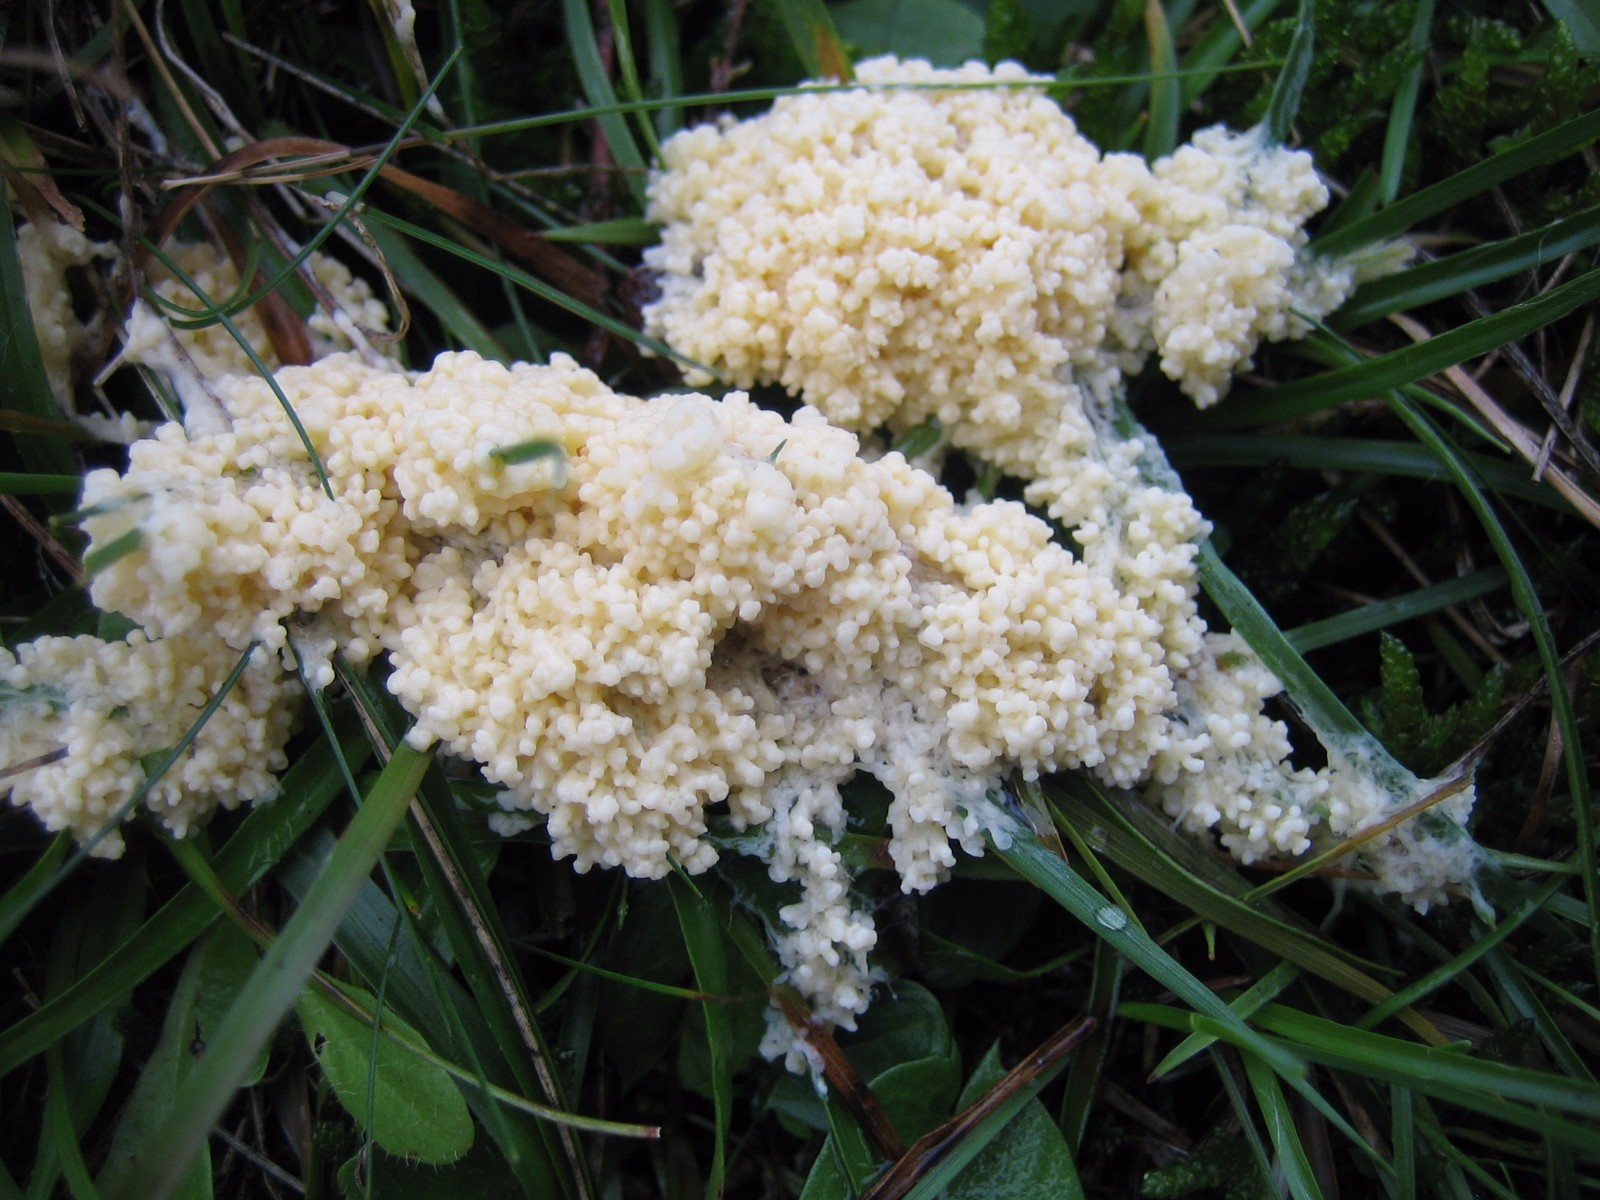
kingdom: Protozoa
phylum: Mycetozoa
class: Myxomycetes
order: Physarales
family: Physaraceae
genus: Didymium
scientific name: Didymium
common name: urteskum
